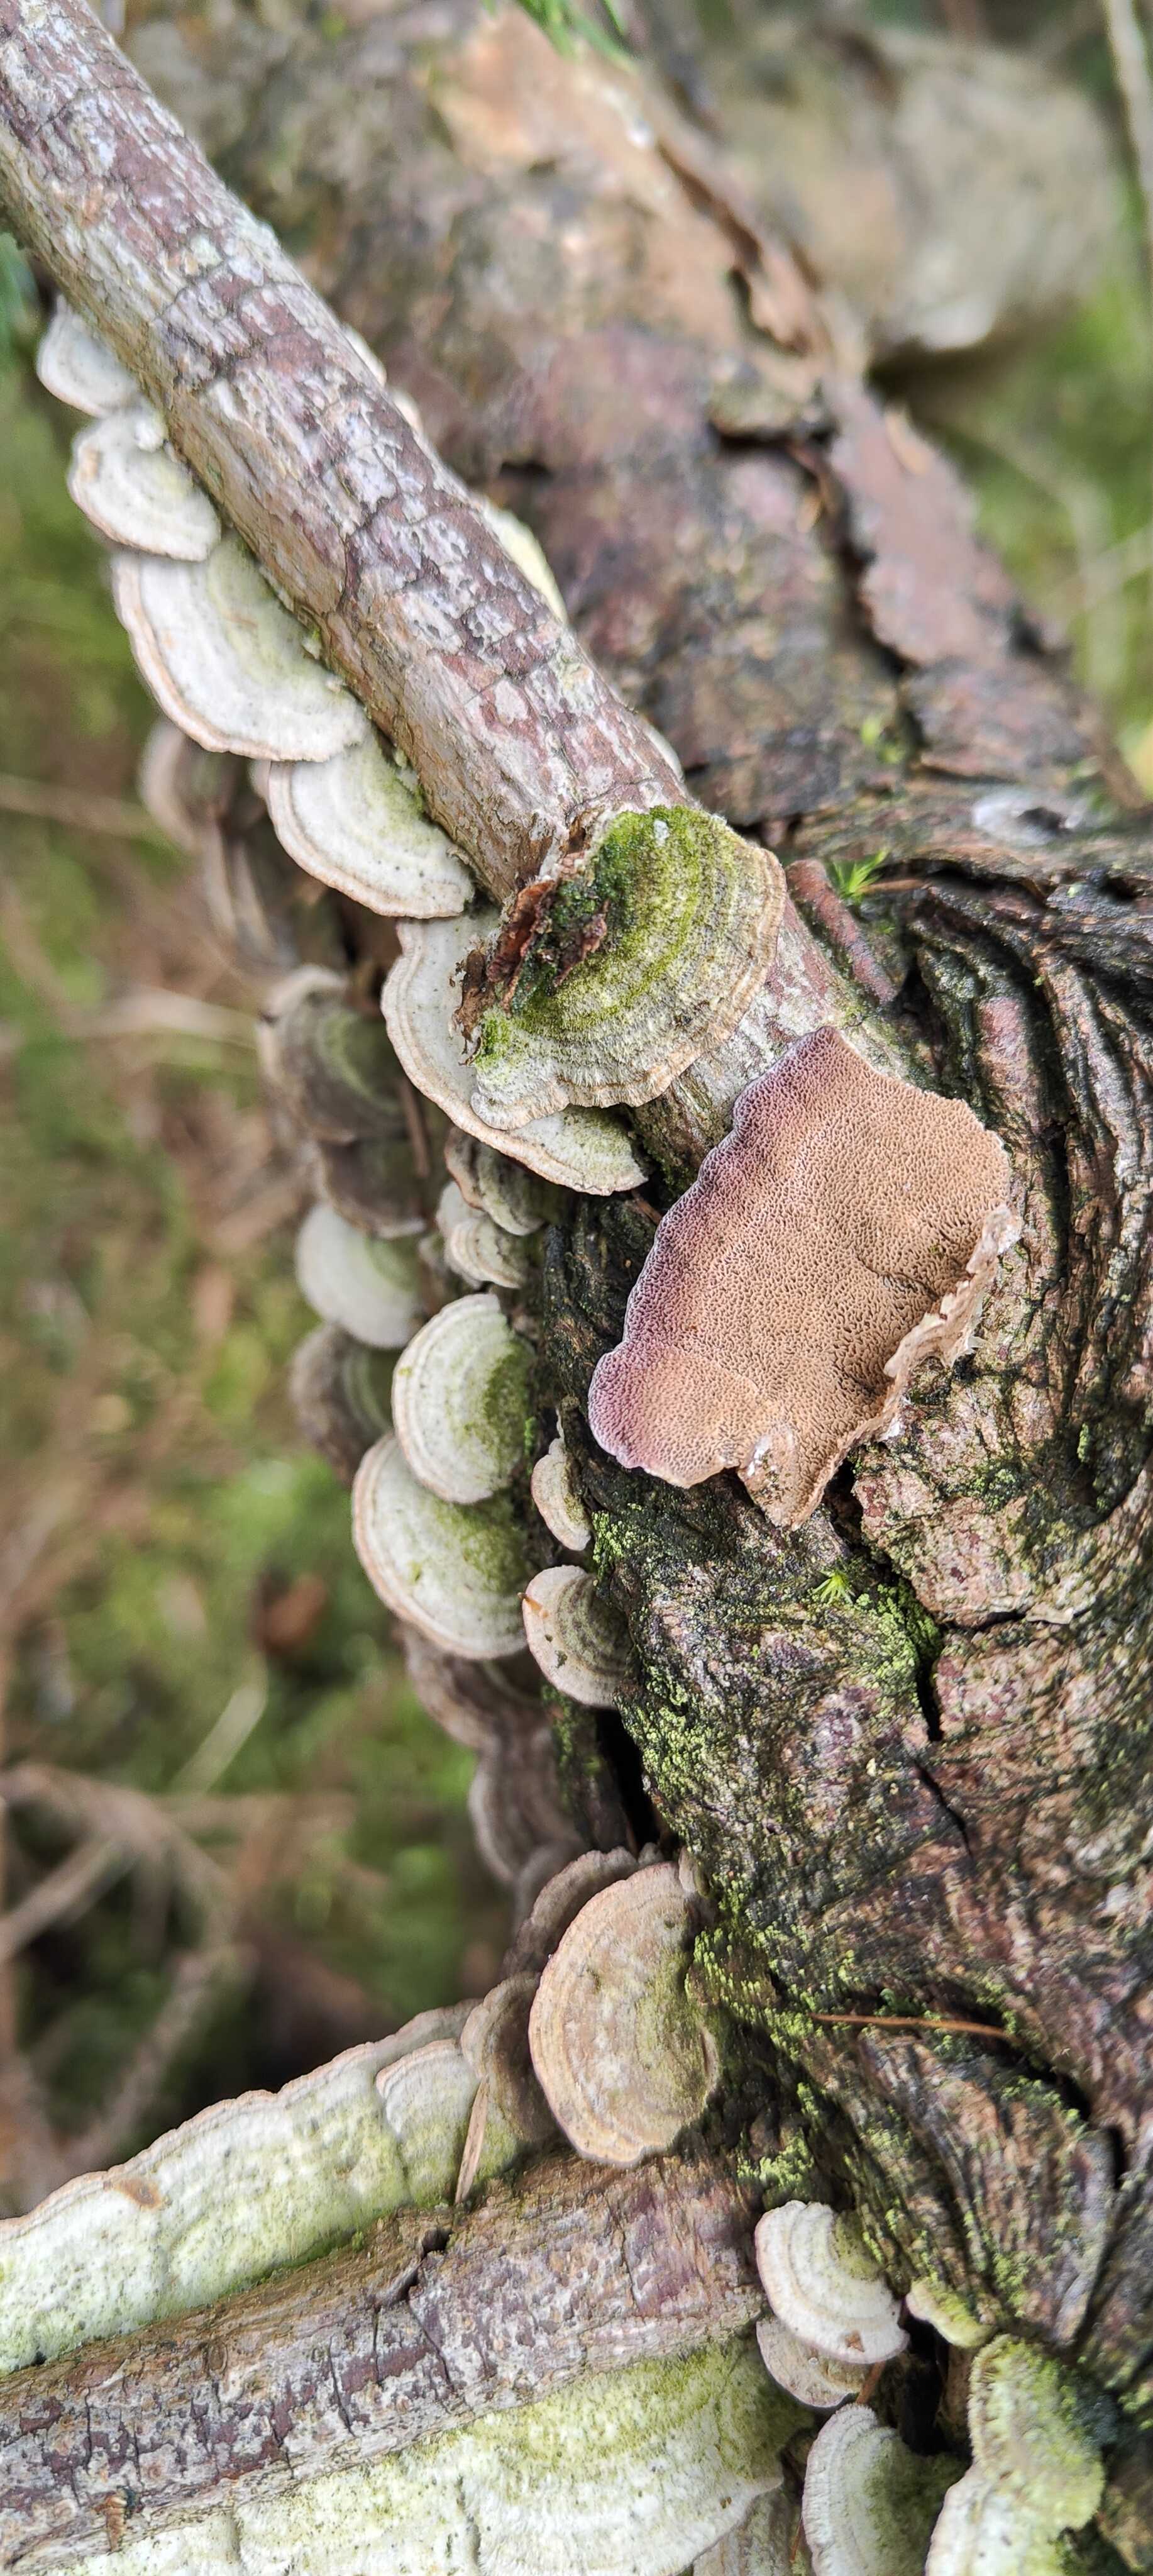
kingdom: Fungi
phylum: Basidiomycota
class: Agaricomycetes
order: Hymenochaetales
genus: Trichaptum
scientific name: Trichaptum abietinum
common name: almindelig violporesvamp
